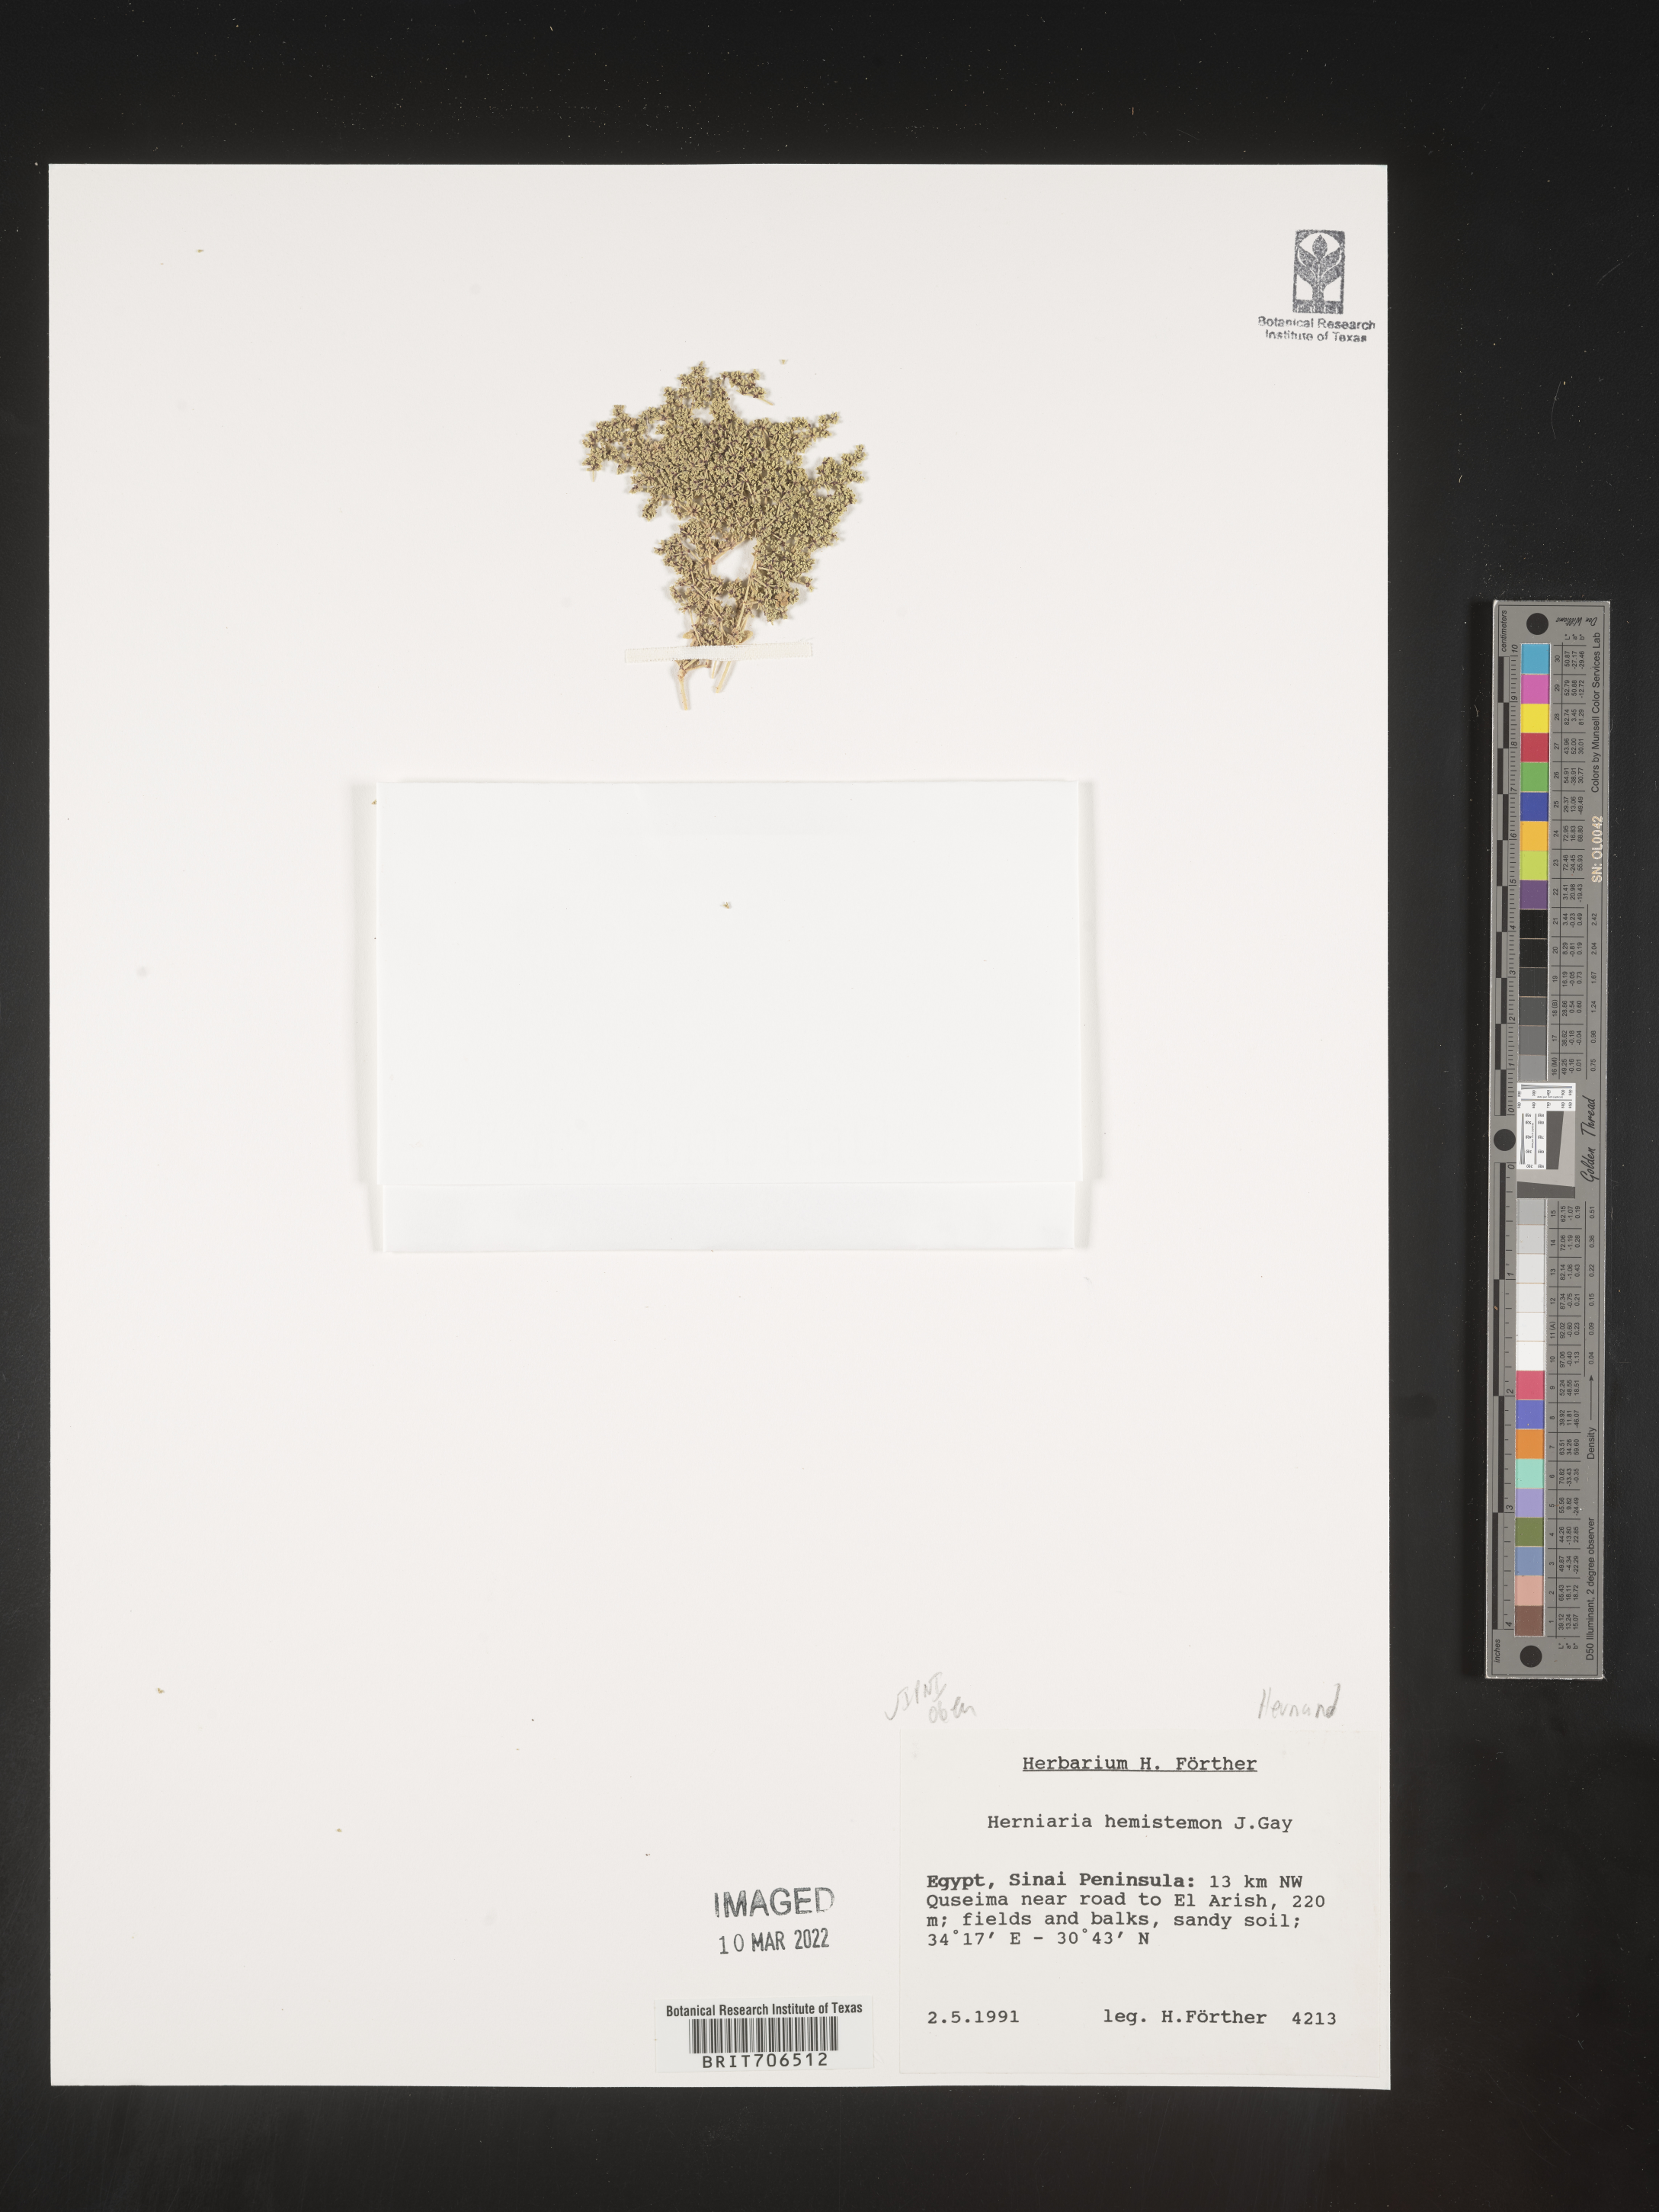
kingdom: Plantae
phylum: Tracheophyta
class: Magnoliopsida
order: Caryophyllales
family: Caryophyllaceae
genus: Herniaria
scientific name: Herniaria
